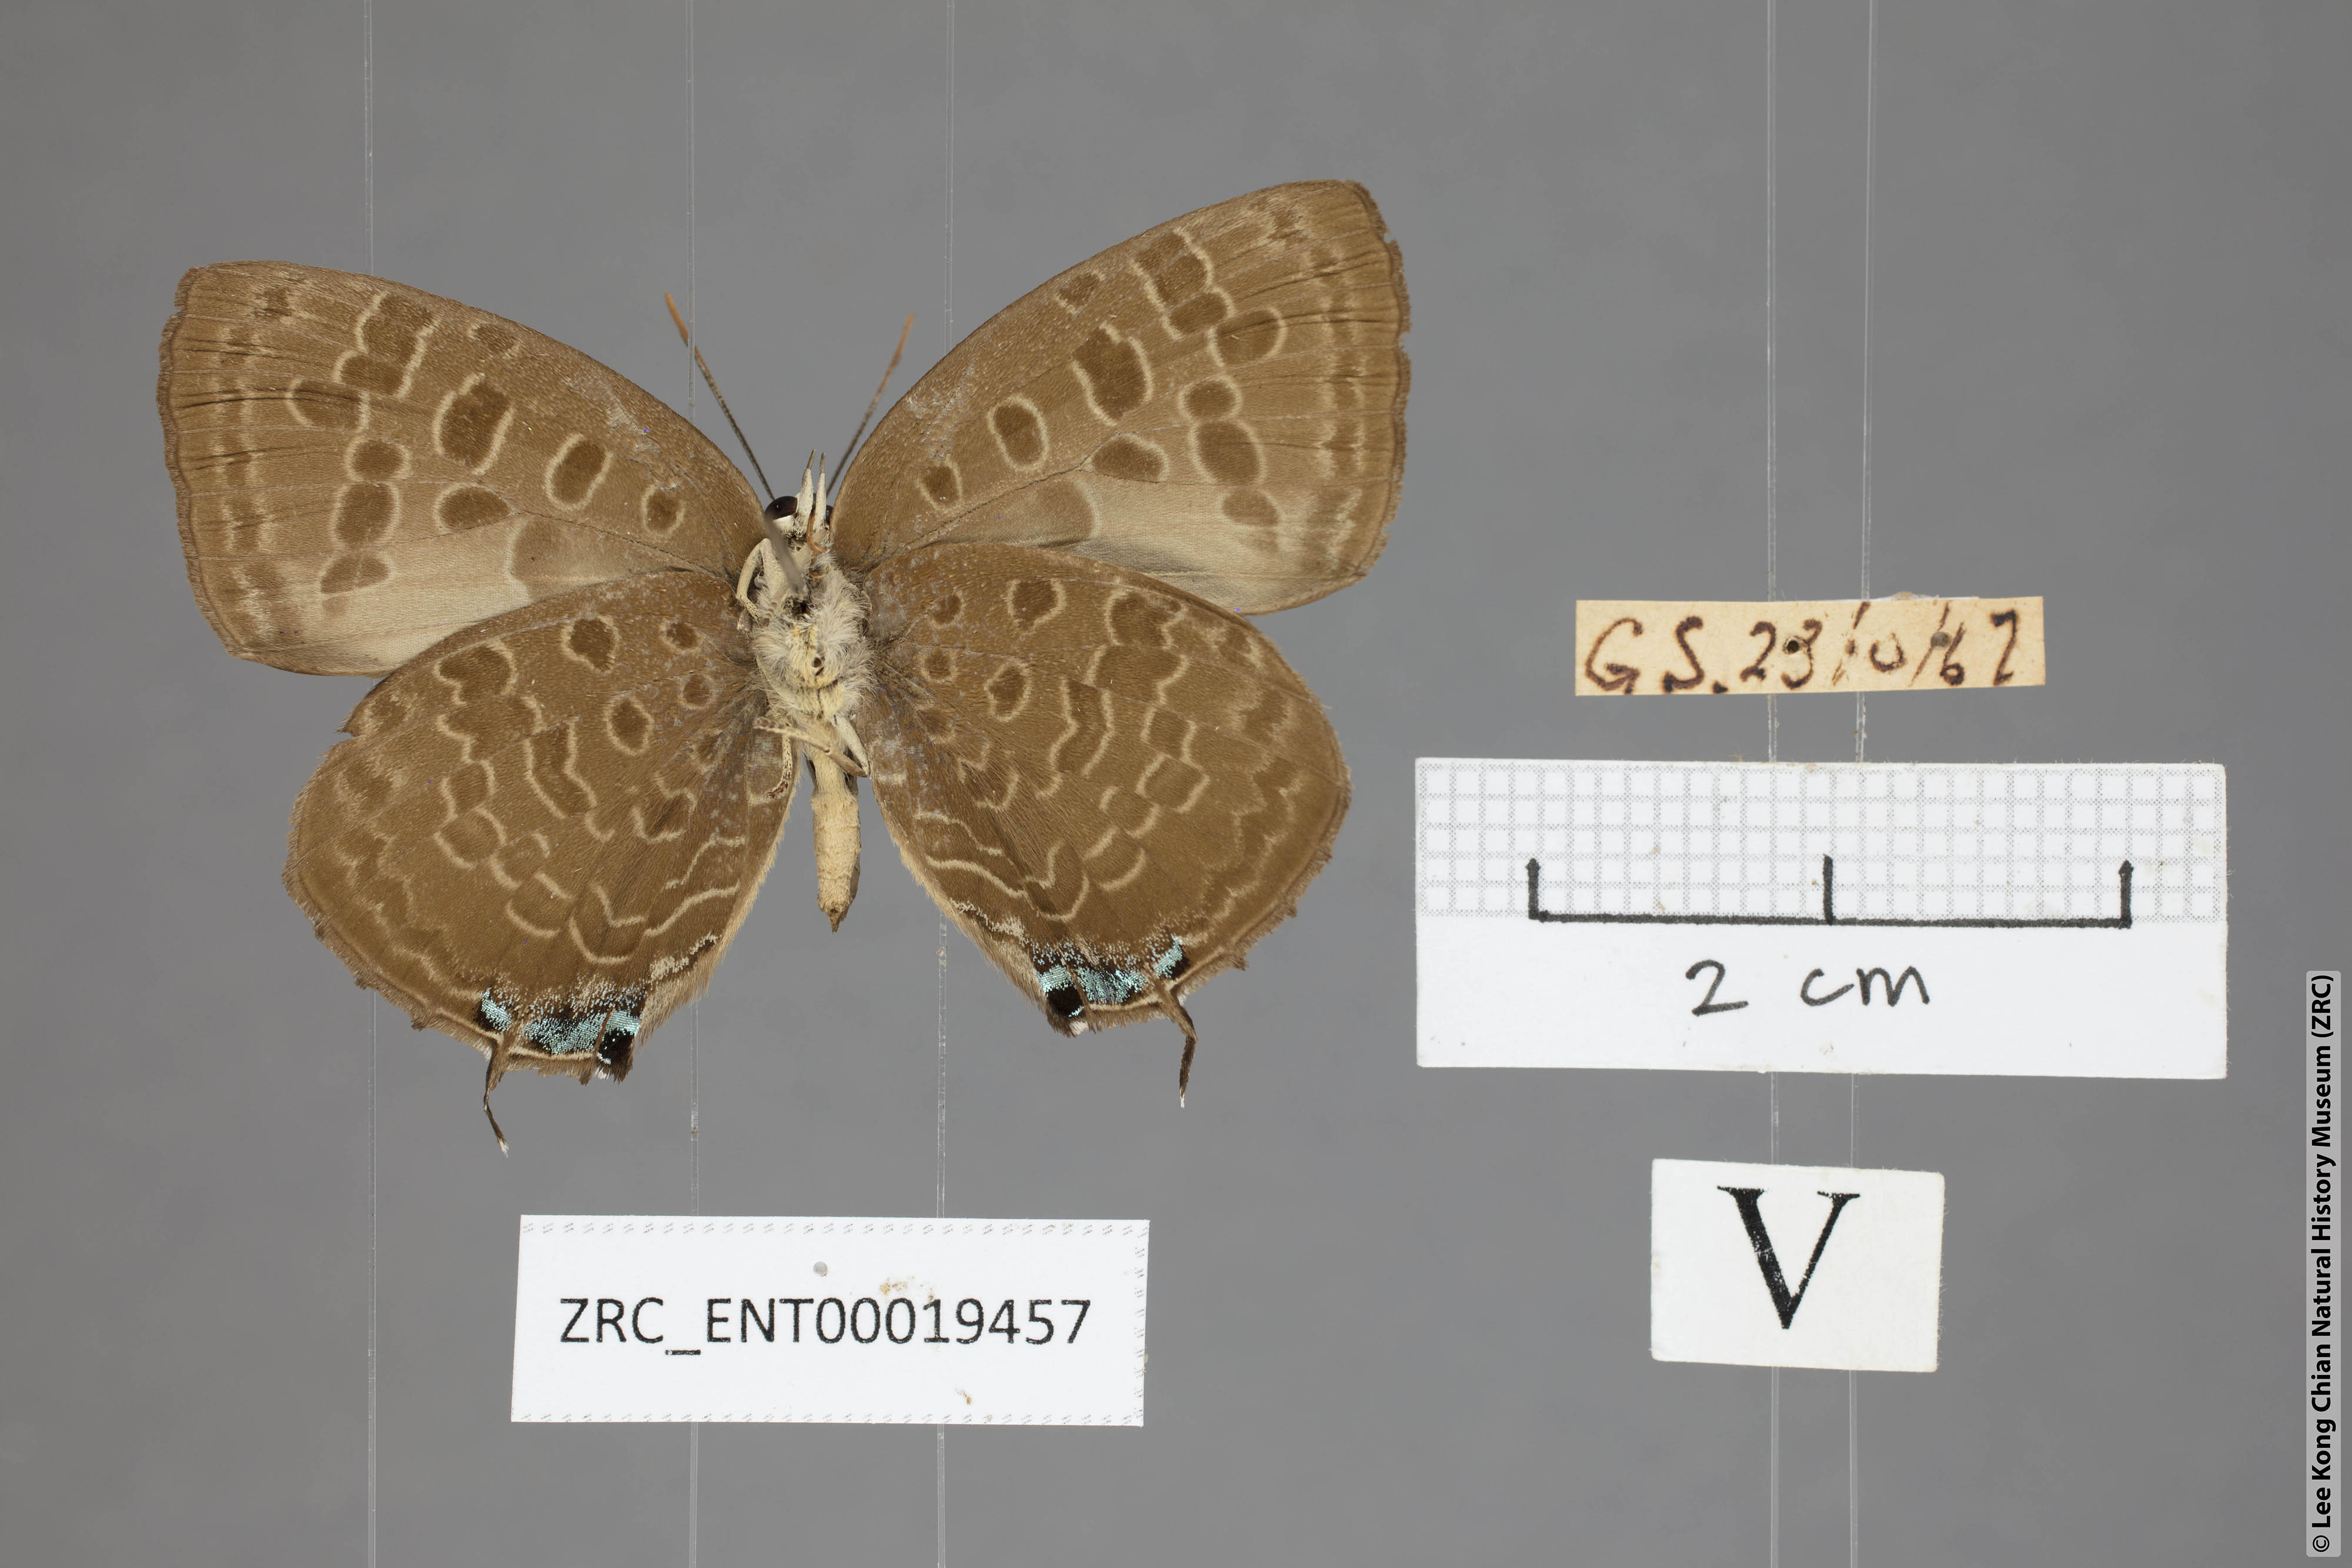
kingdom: Animalia
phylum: Arthropoda
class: Insecta
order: Lepidoptera
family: Lycaenidae
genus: Arhopala
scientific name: Arhopala eumolphus
